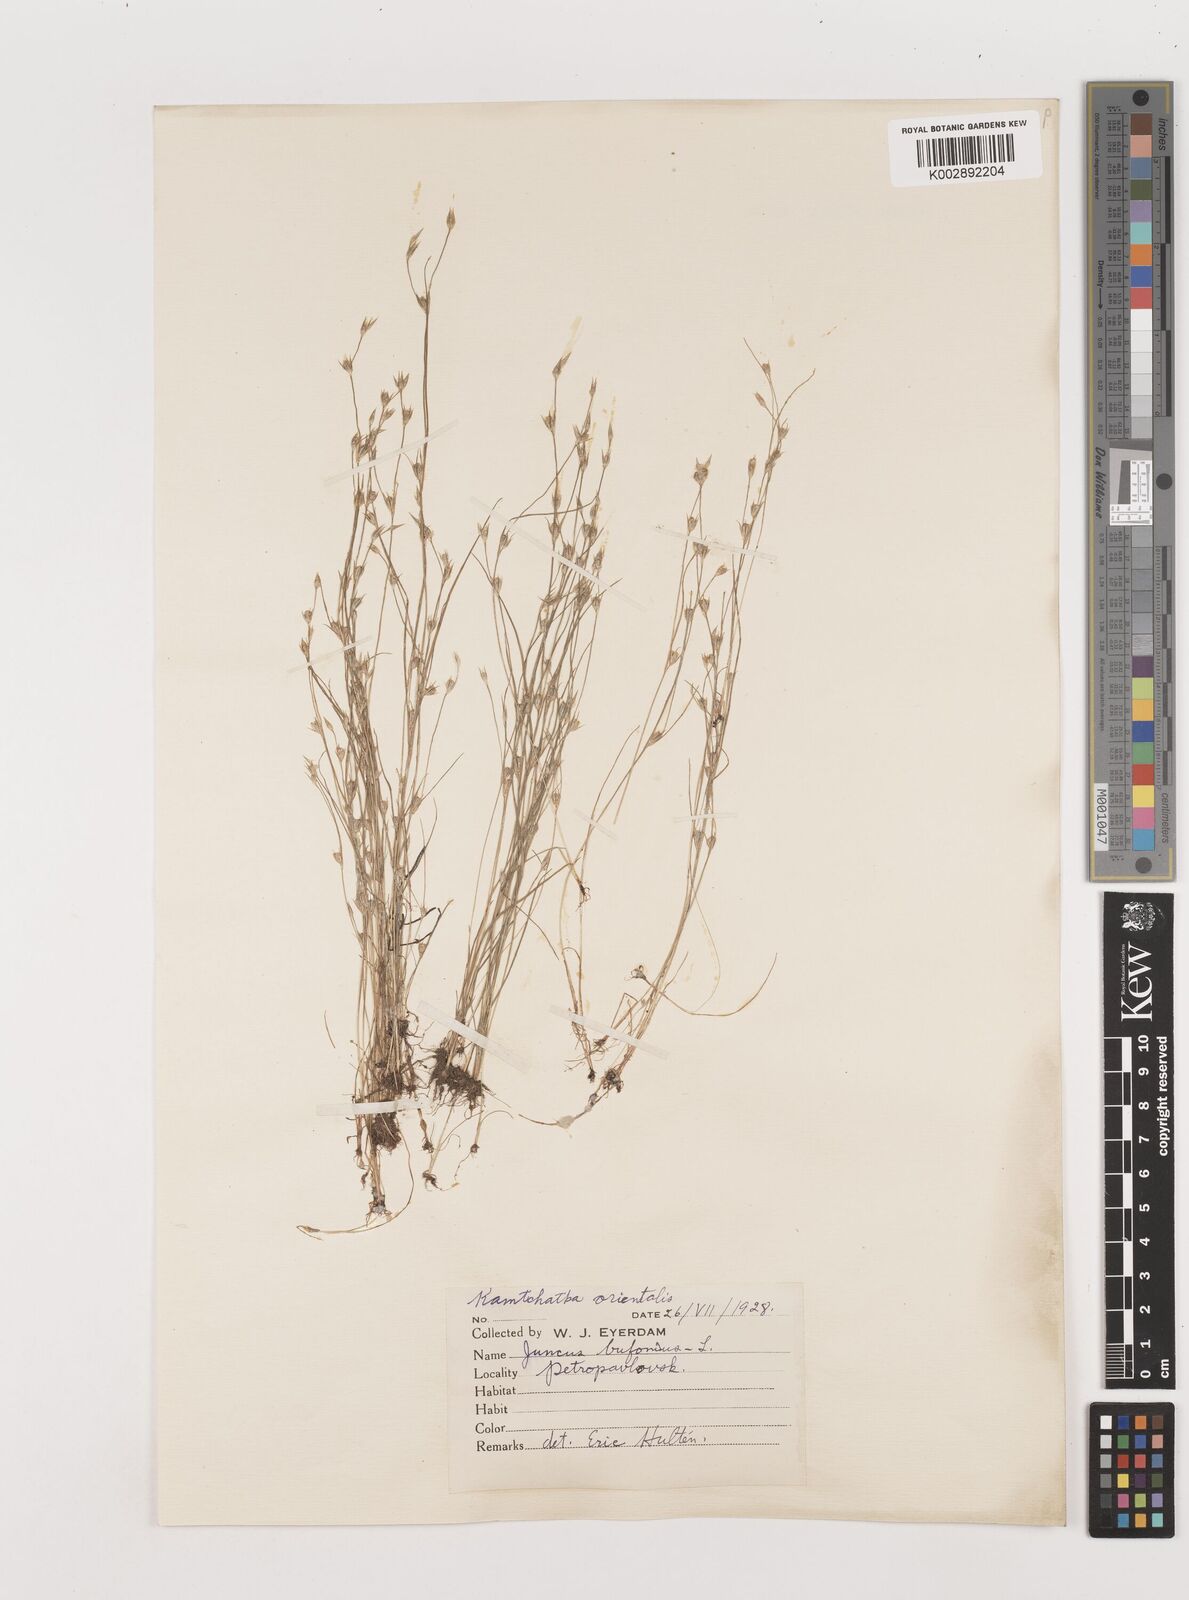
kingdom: Plantae
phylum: Tracheophyta
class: Liliopsida
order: Poales
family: Juncaceae
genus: Juncus
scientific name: Juncus bufonius
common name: Toad rush
